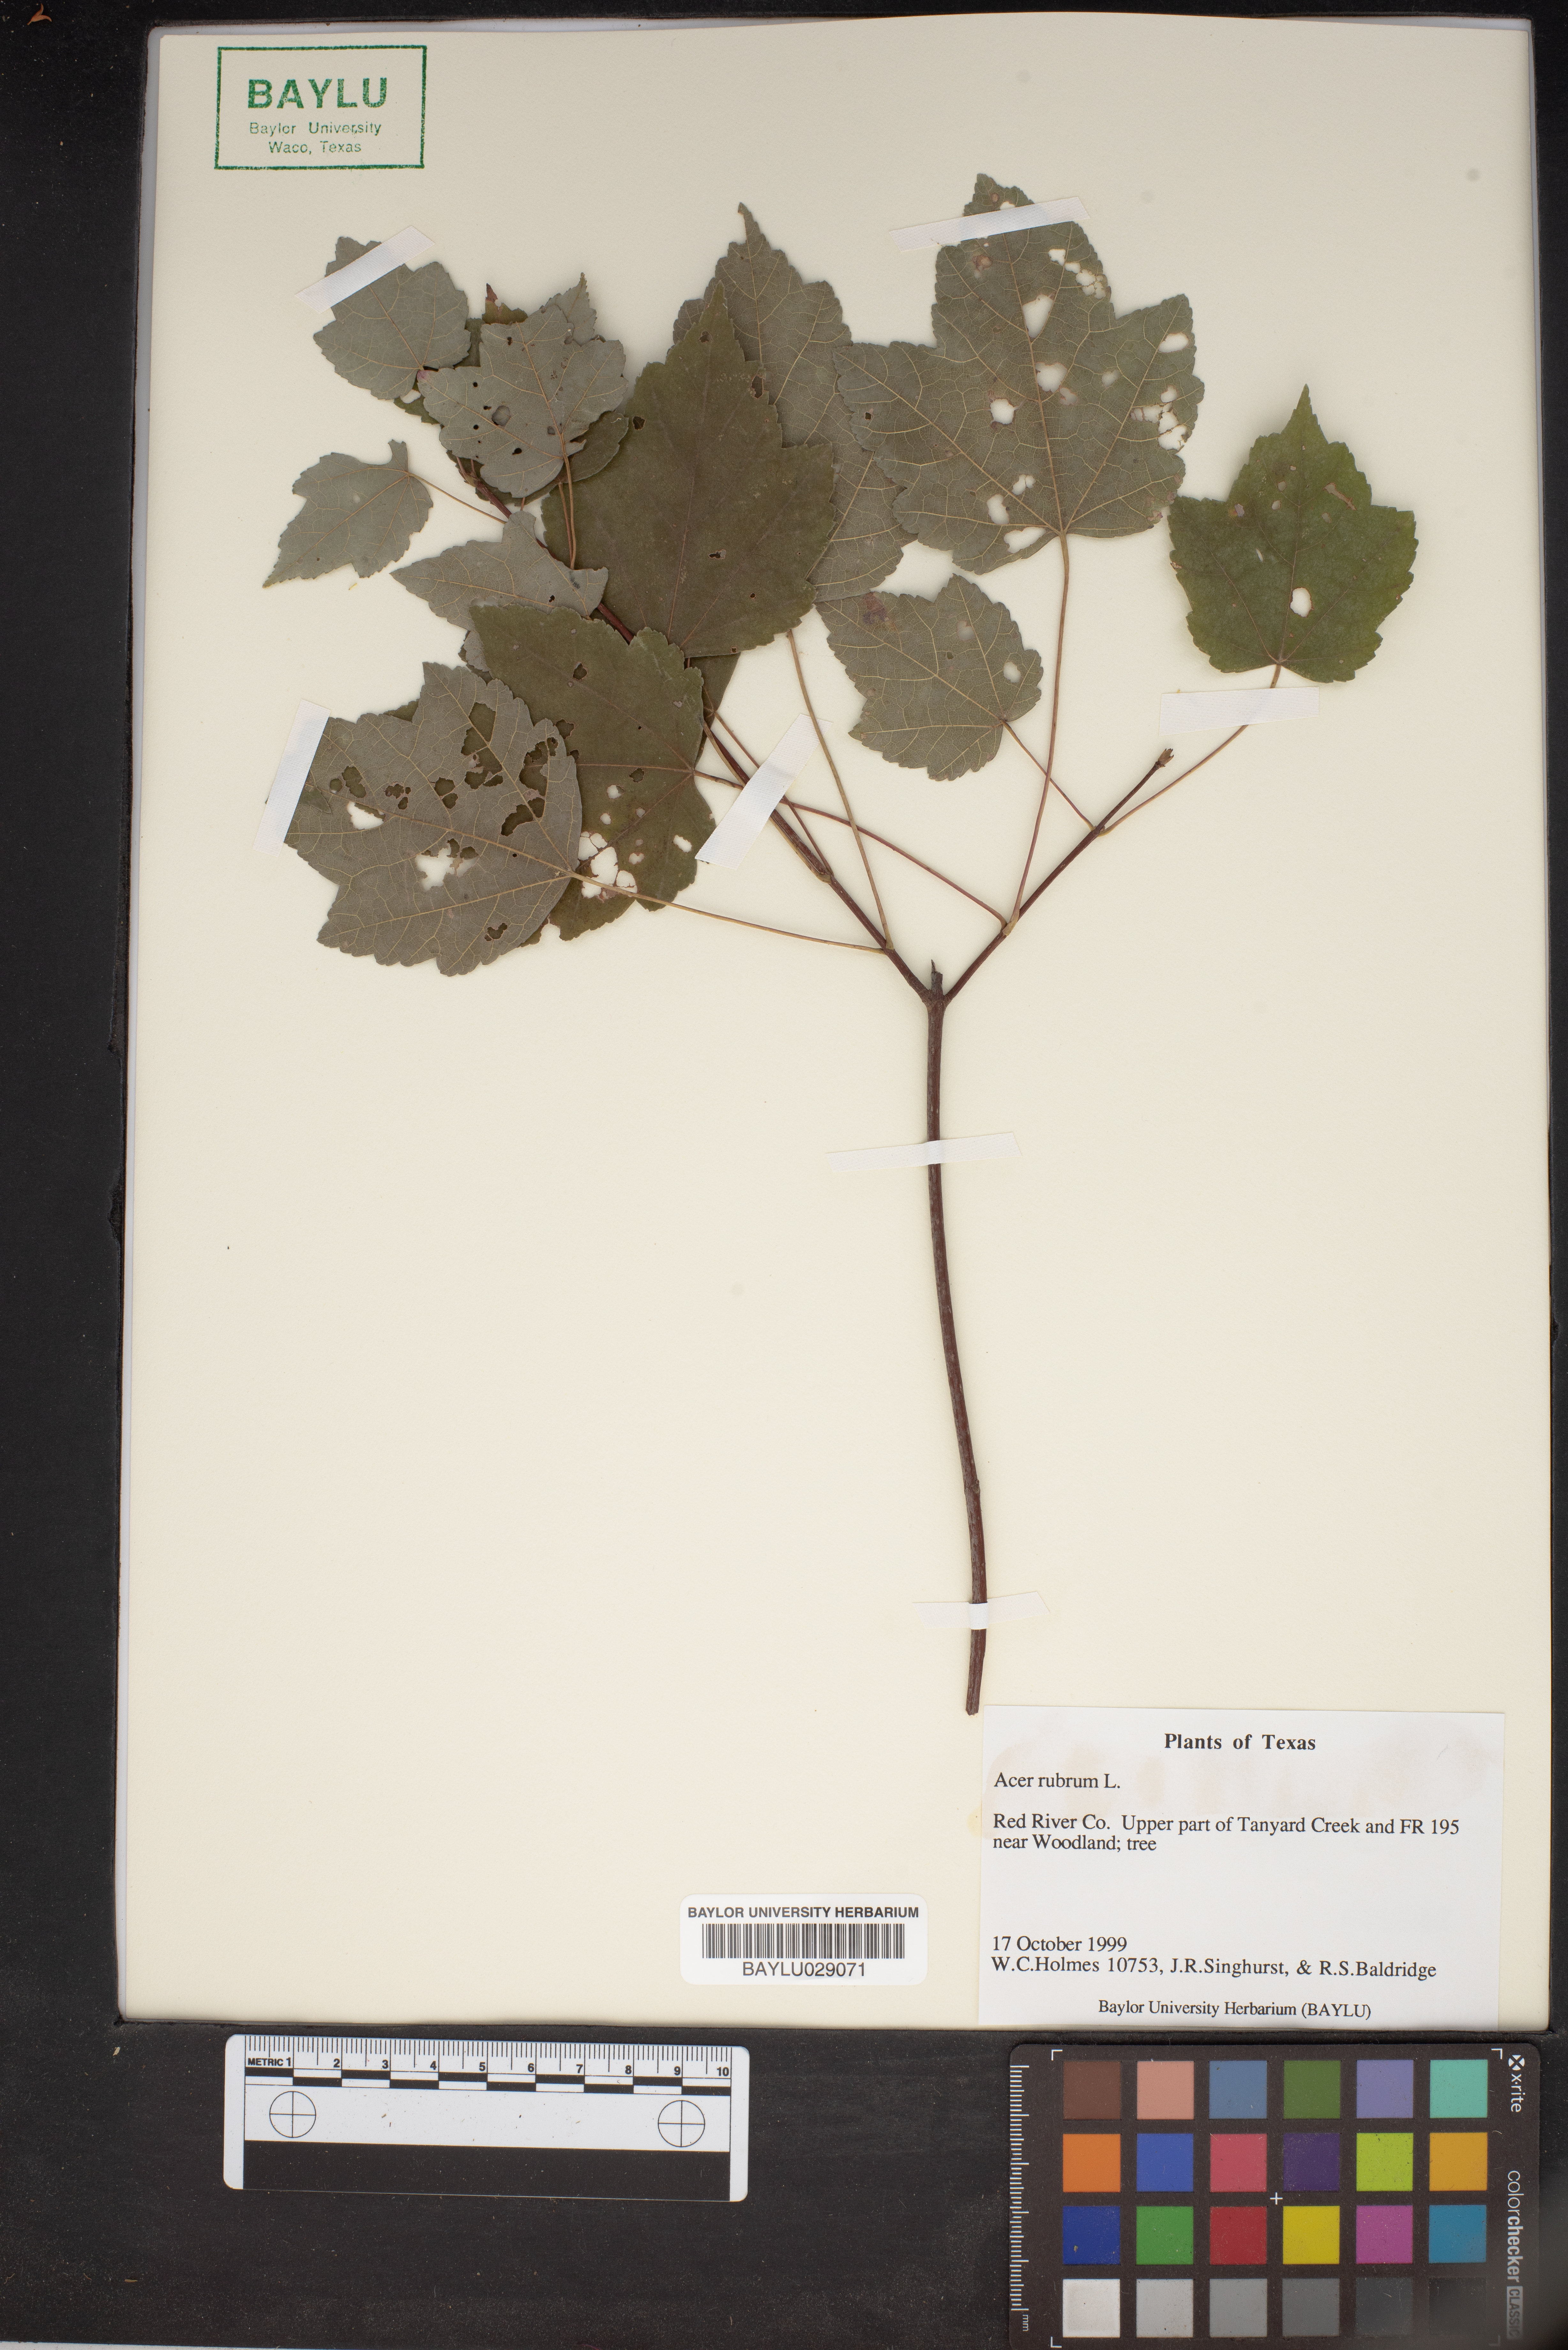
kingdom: Plantae
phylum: Tracheophyta
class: Magnoliopsida
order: Sapindales
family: Sapindaceae
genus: Acer
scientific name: Acer rubrum
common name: Red maple
